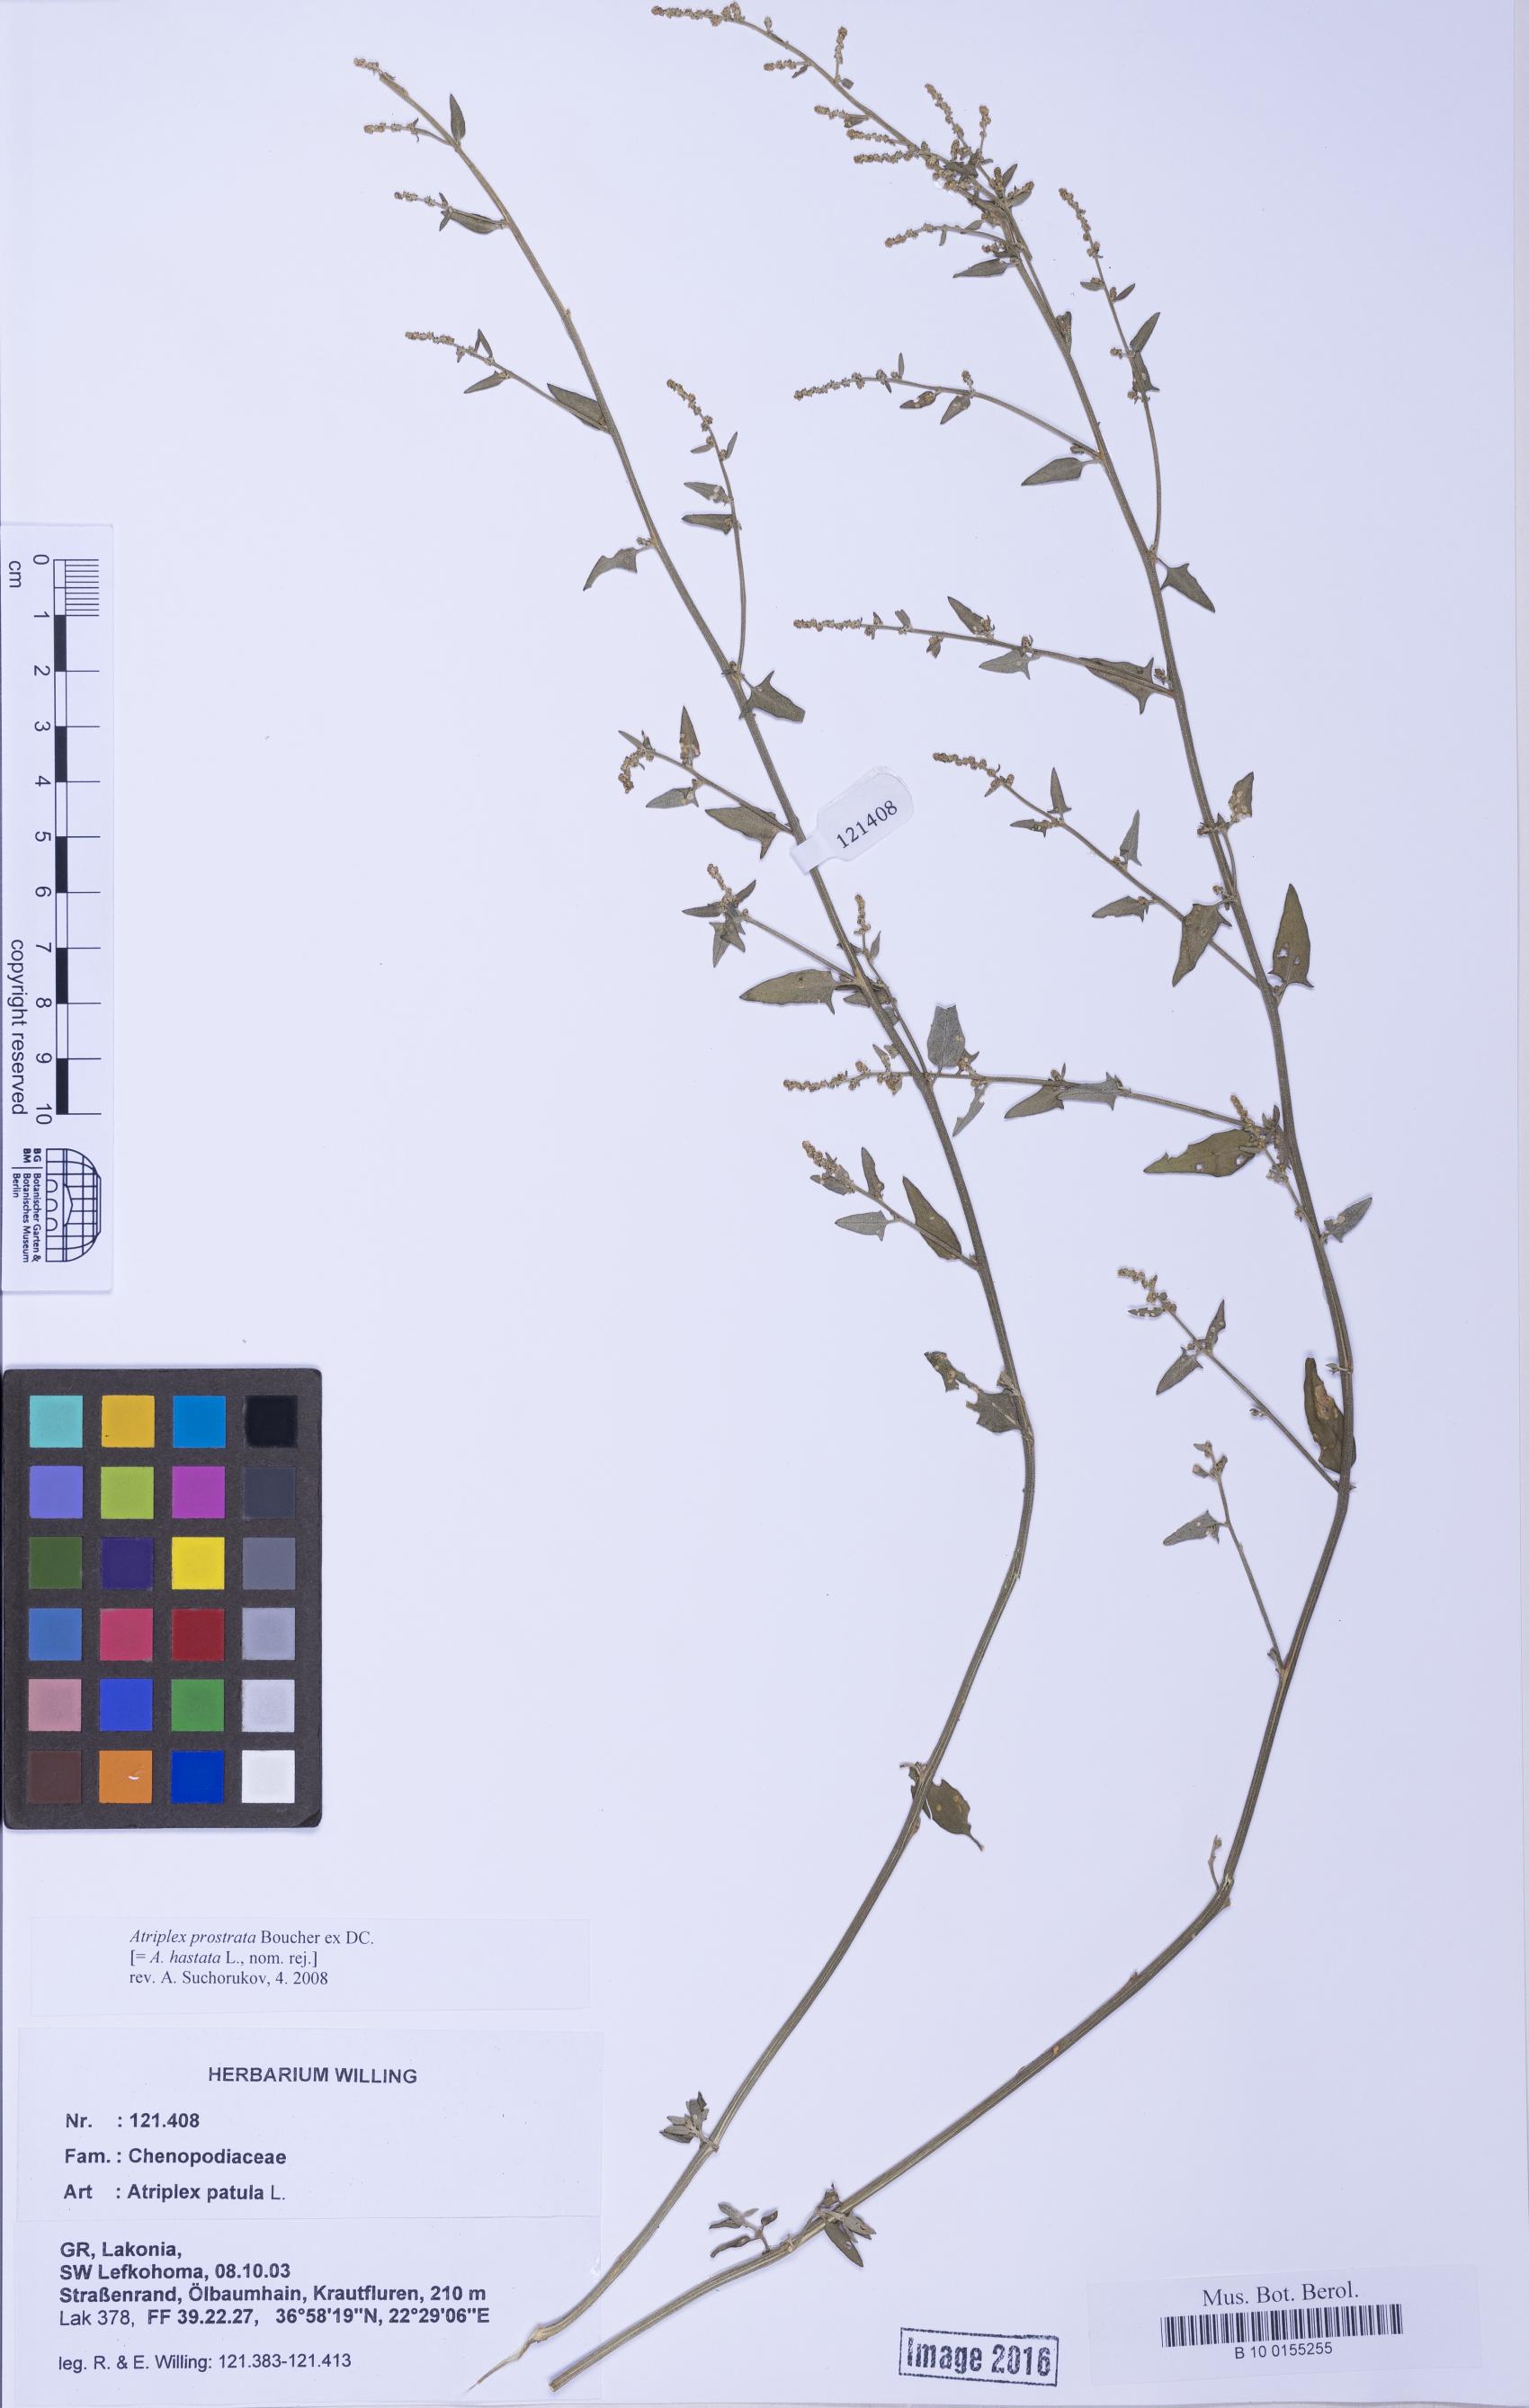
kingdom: Plantae
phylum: Tracheophyta
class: Magnoliopsida
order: Caryophyllales
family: Amaranthaceae
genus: Atriplex
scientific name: Atriplex prostrata
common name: Spear-leaved orache
